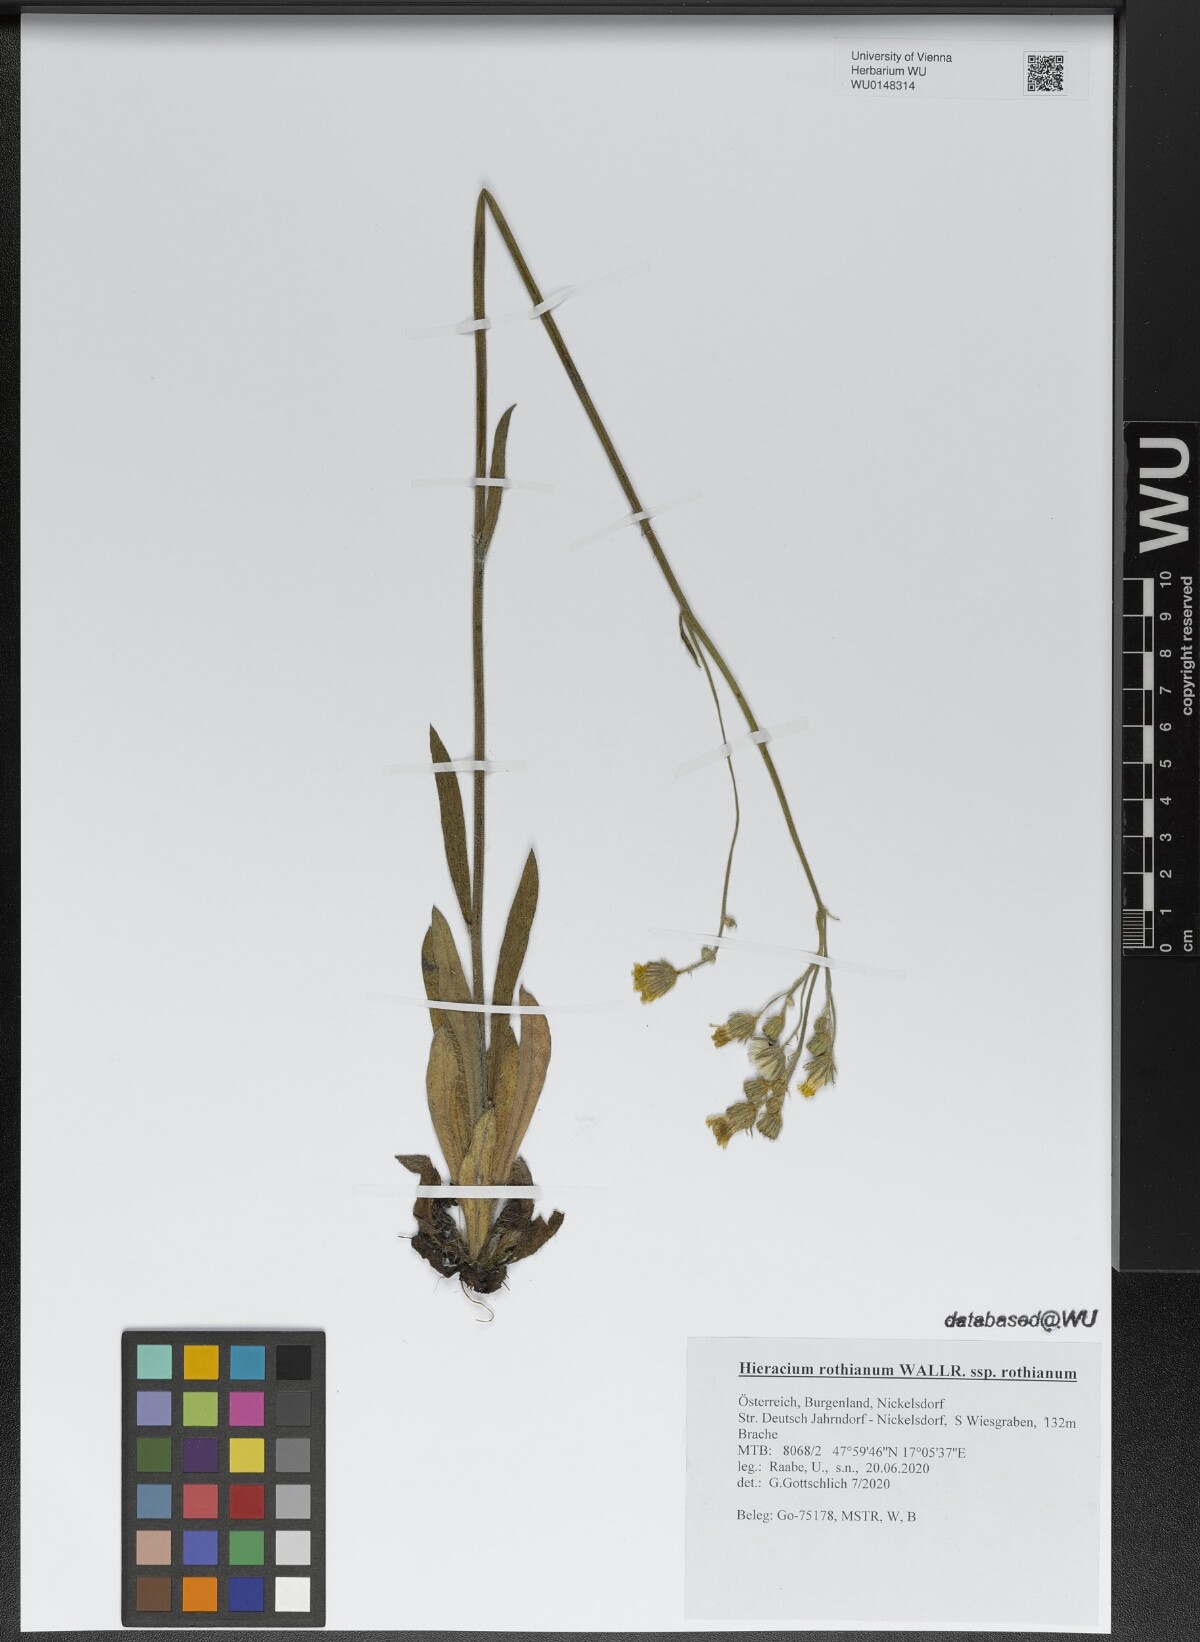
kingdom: Plantae
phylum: Tracheophyta
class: Magnoliopsida
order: Asterales
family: Asteraceae
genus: Pilosella
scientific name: Pilosella rothiana
